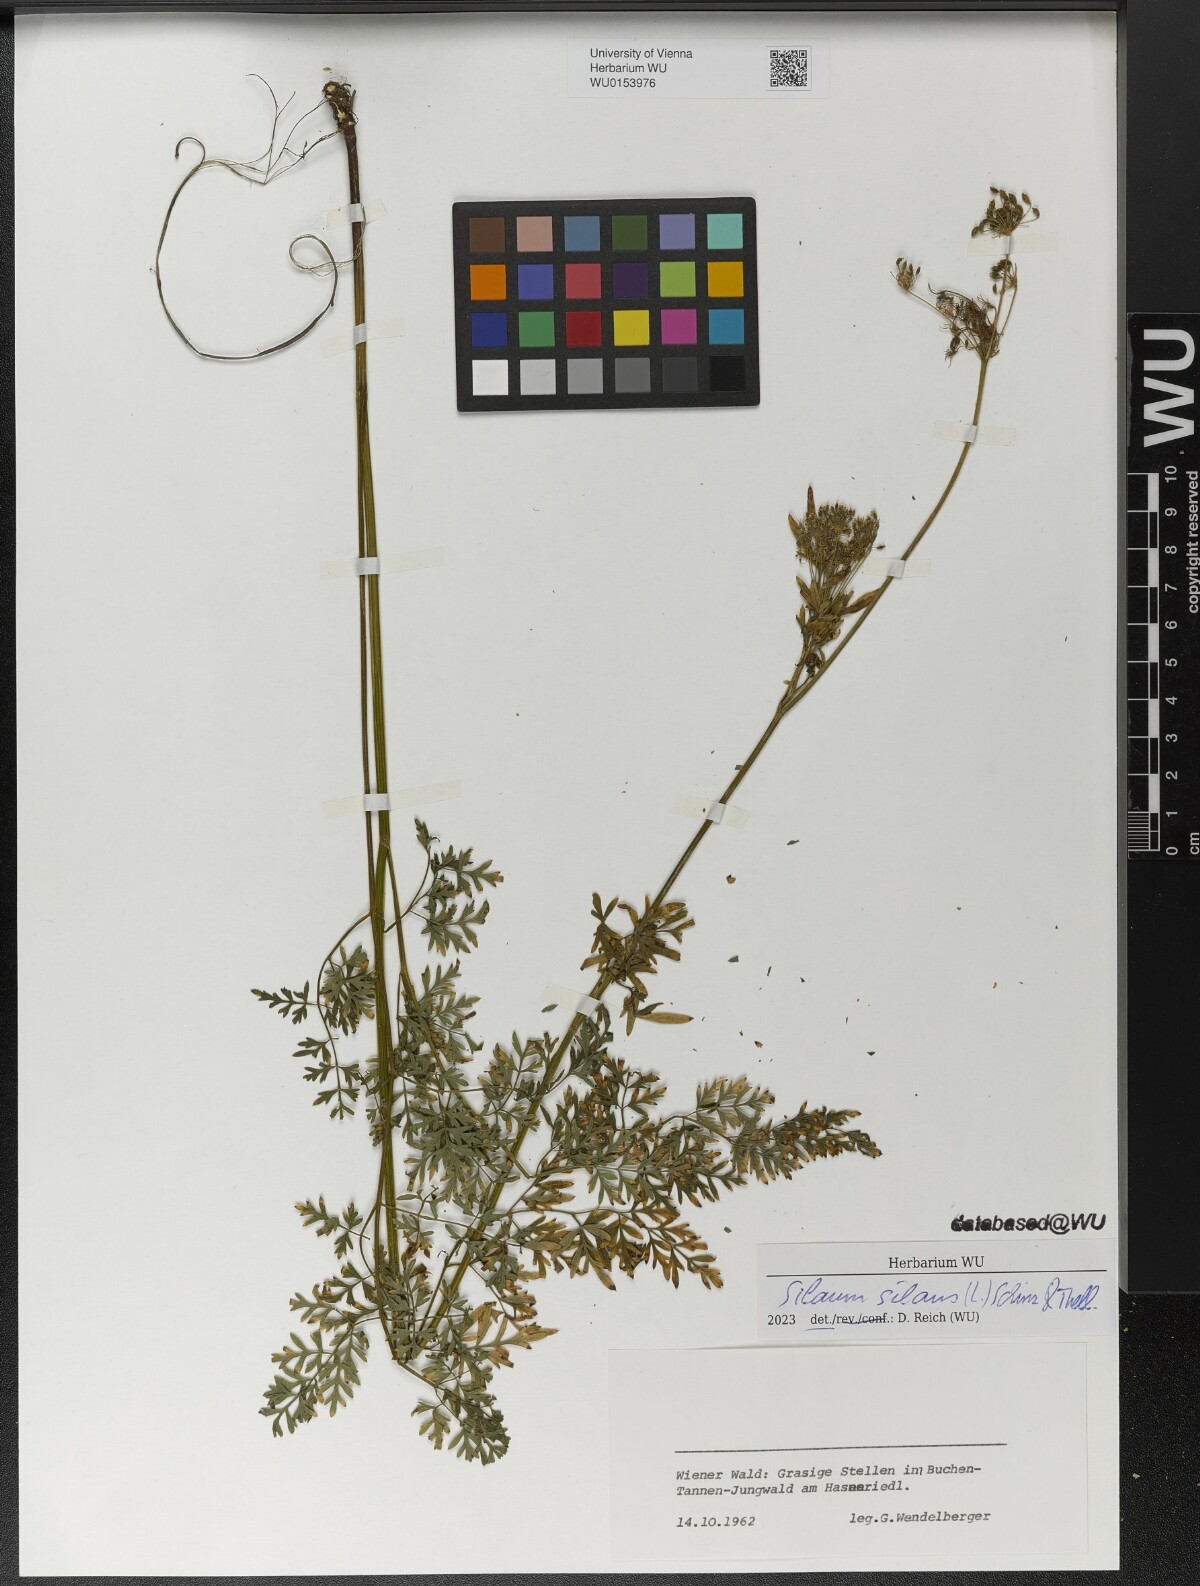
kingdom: Plantae
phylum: Tracheophyta
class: Magnoliopsida
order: Apiales
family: Apiaceae
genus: Silaum
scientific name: Silaum silaus
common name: Pepper-saxifrage
